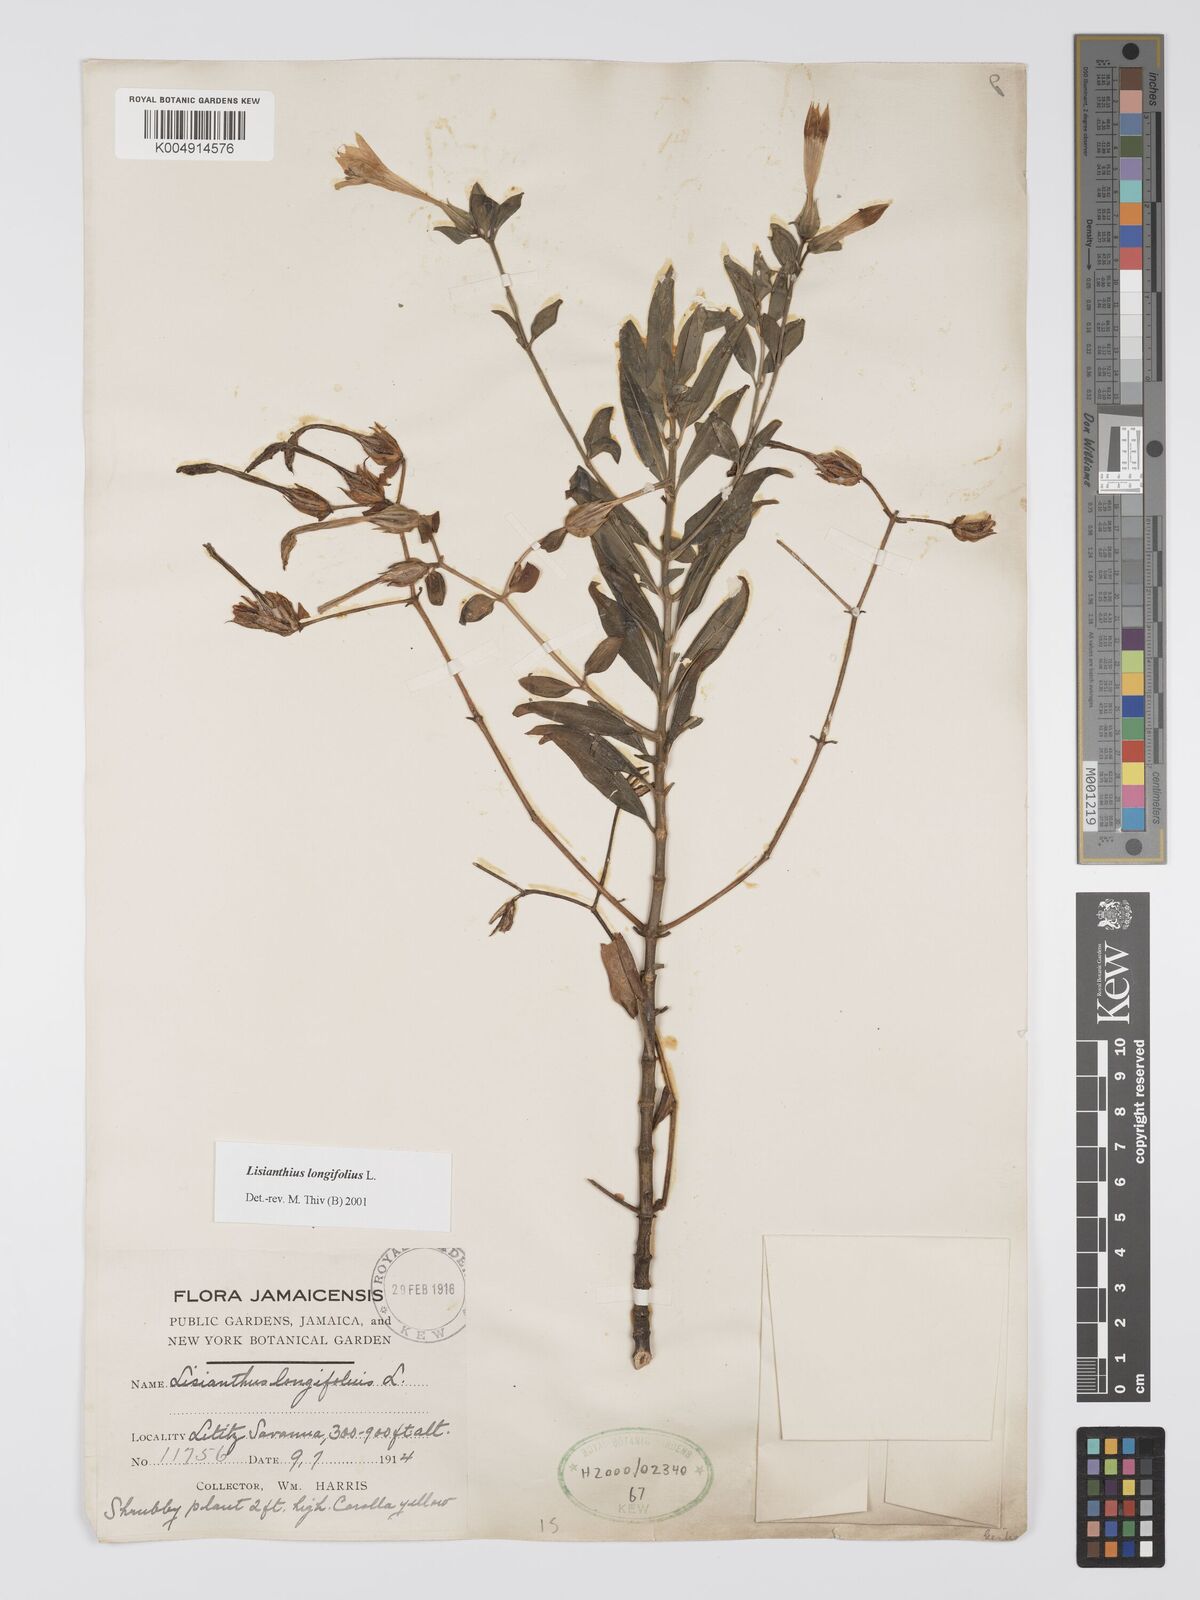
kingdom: Plantae
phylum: Tracheophyta
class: Magnoliopsida
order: Gentianales
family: Gentianaceae
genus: Lisianthus
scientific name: Lisianthus longifolius
